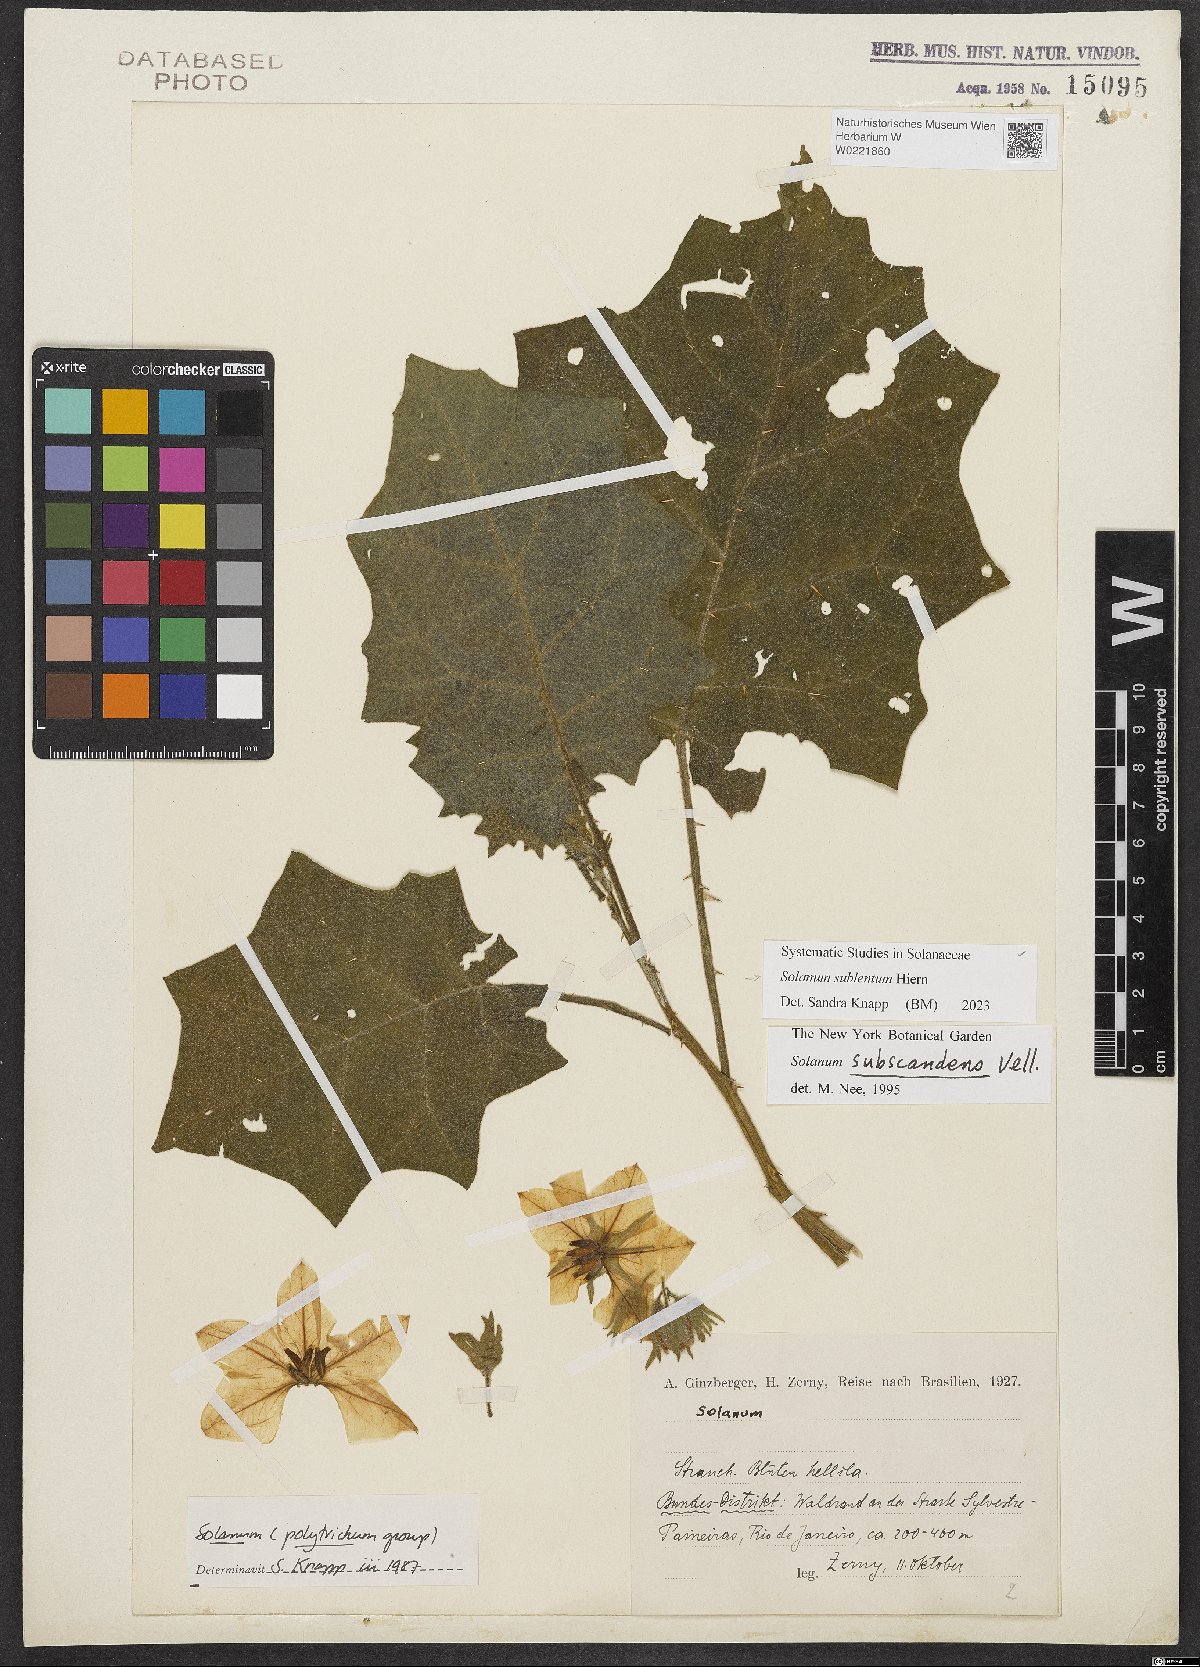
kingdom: Plantae
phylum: Tracheophyta
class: Magnoliopsida
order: Solanales
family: Solanaceae
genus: Solanum
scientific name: Solanum sublentum
